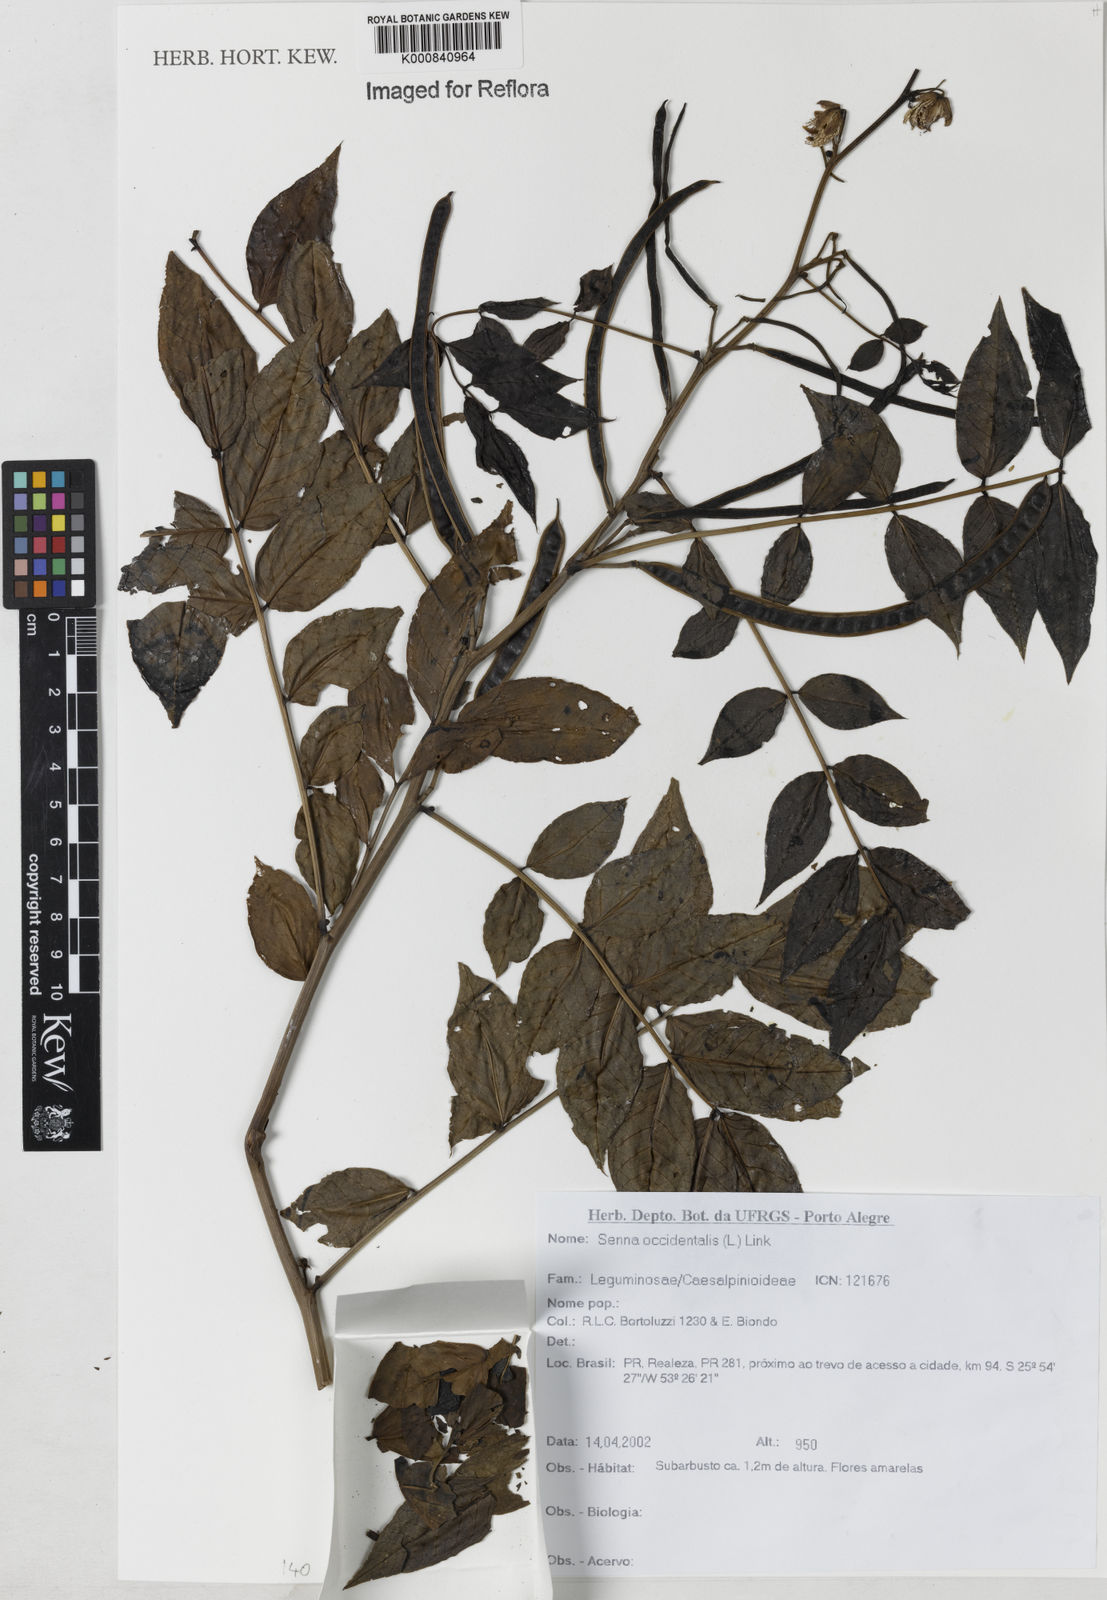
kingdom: Plantae
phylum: Tracheophyta
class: Magnoliopsida
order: Fabales
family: Fabaceae
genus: Senna
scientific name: Senna occidentalis
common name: Septicweed
